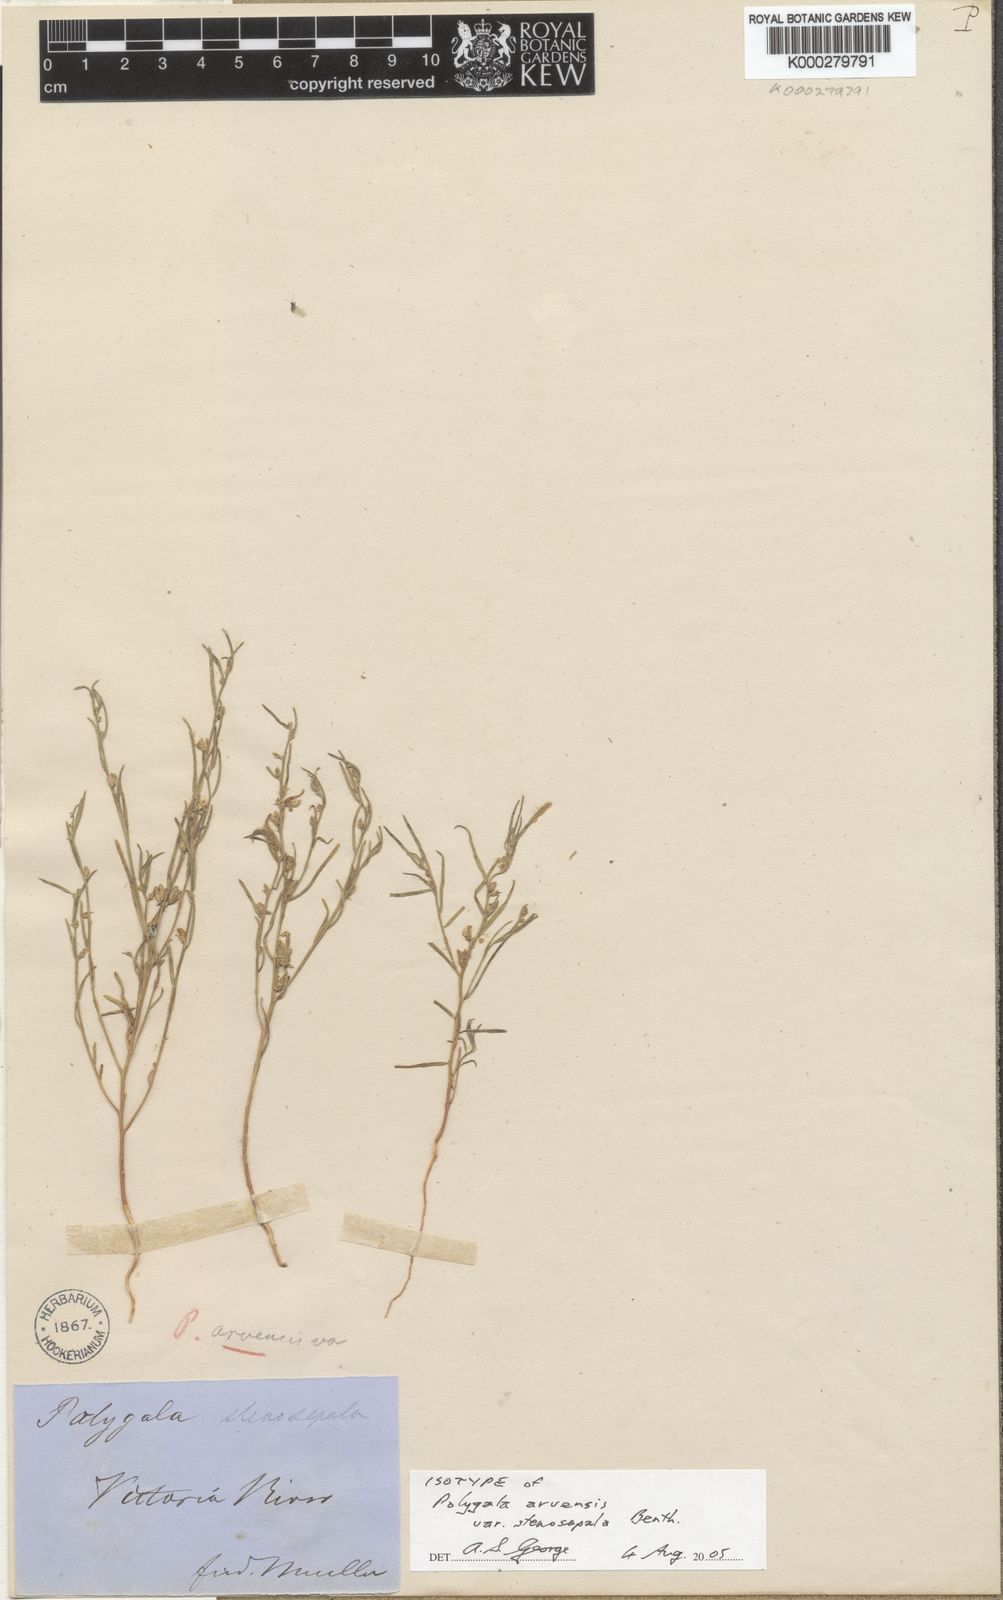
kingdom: Plantae
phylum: Tracheophyta
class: Magnoliopsida
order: Fabales
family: Polygalaceae
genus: Polygala
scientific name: Polygala arvensis
